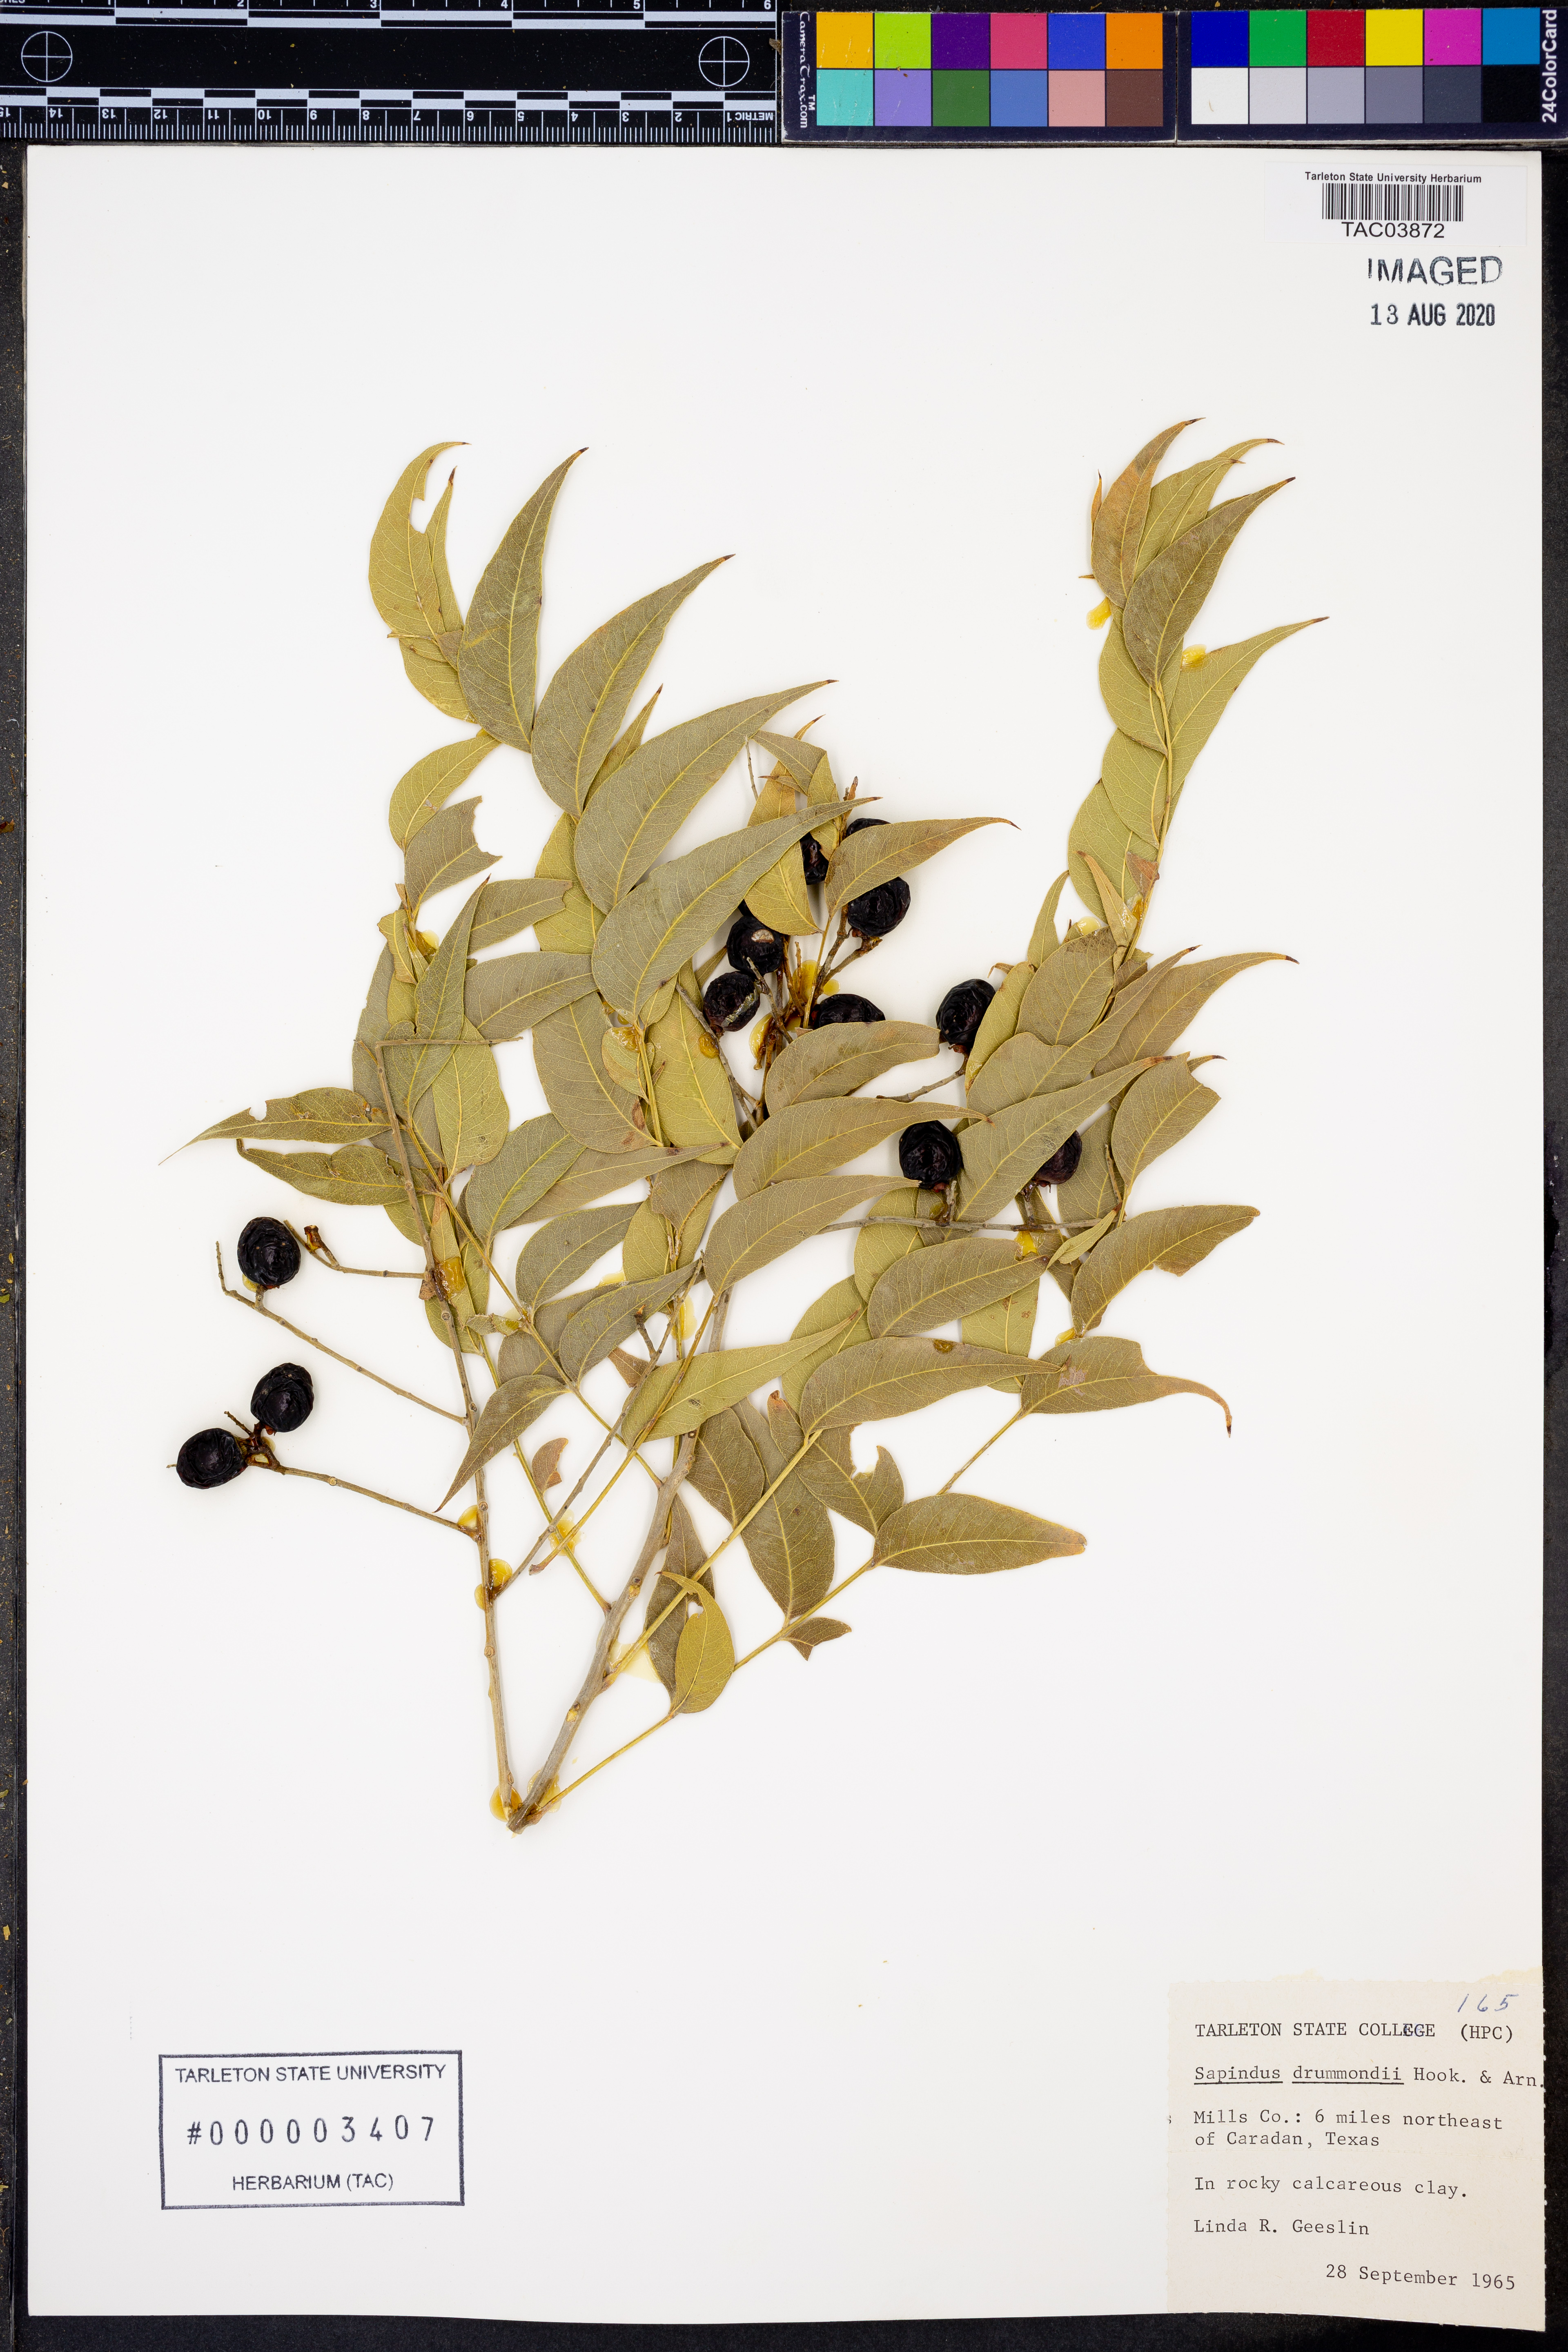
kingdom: Plantae
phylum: Tracheophyta
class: Magnoliopsida
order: Sapindales
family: Sapindaceae
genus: Sapindus
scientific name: Sapindus drummondii
